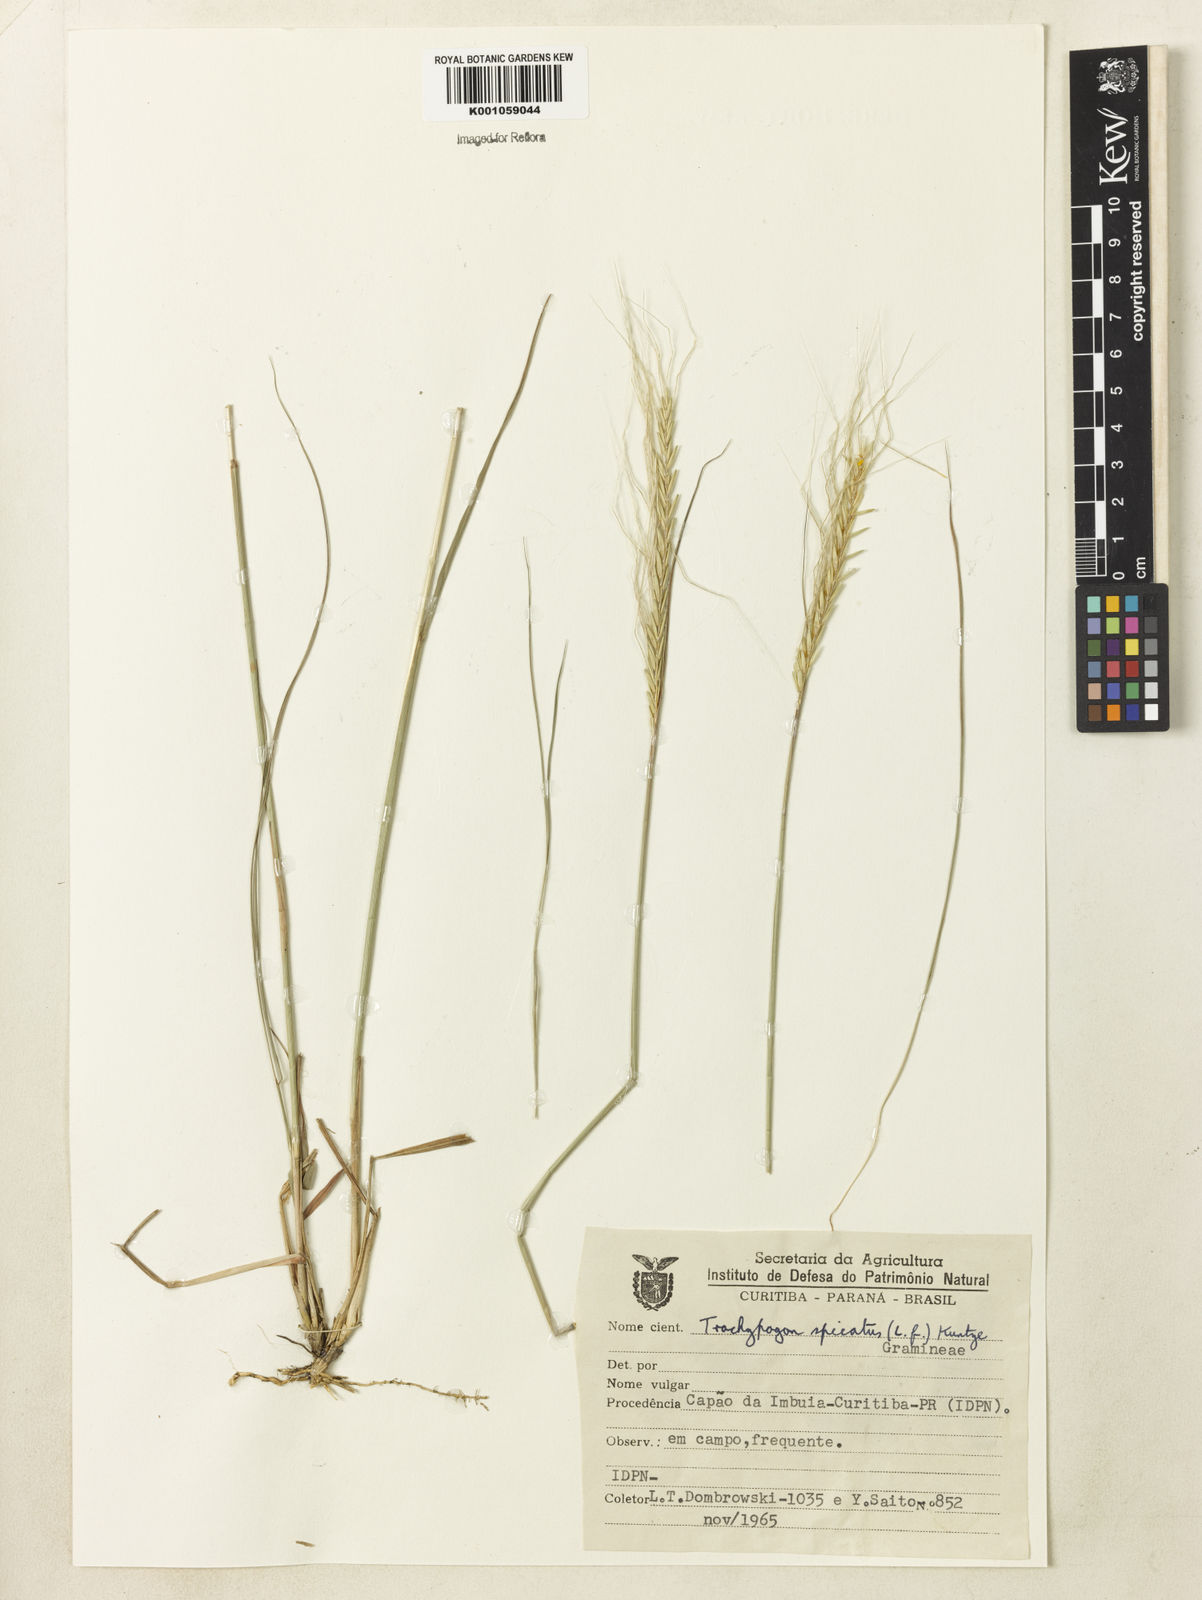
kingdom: Plantae
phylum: Tracheophyta
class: Liliopsida
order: Poales
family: Poaceae
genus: Trachypogon
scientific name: Trachypogon spicatus
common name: Crinkle-awn
